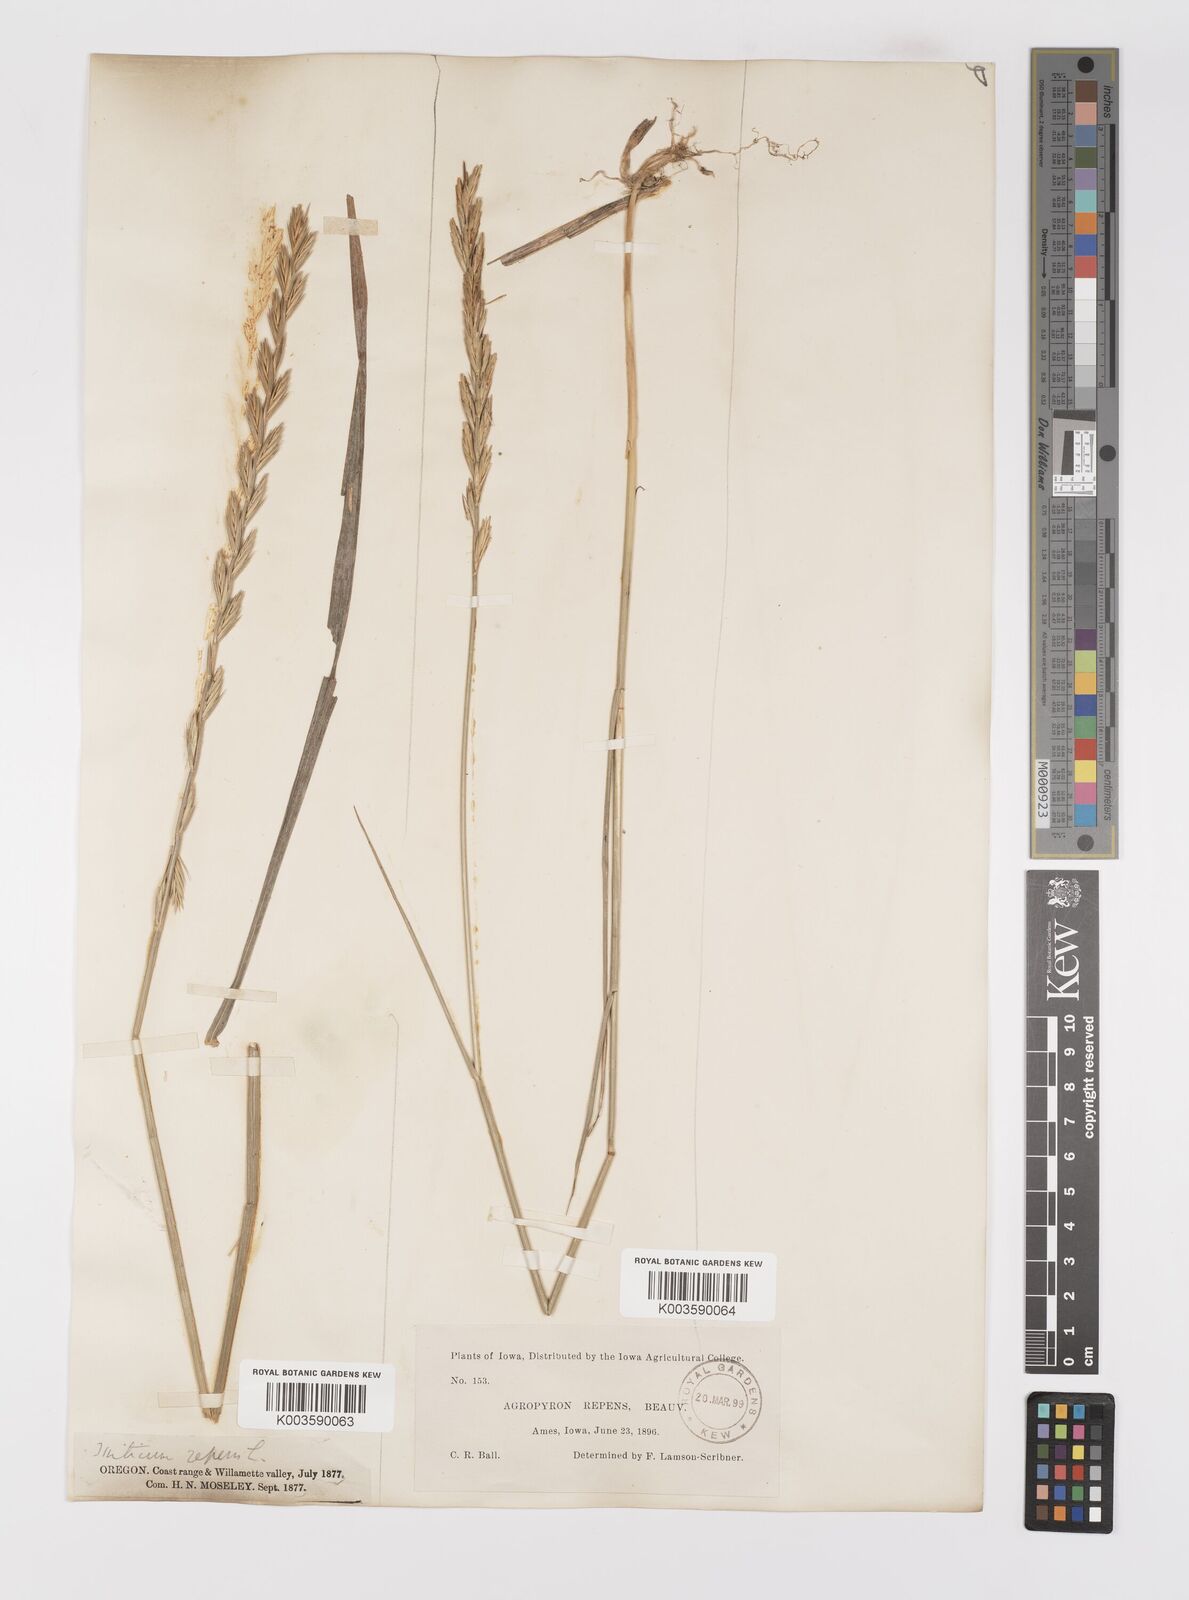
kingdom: Plantae
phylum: Tracheophyta
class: Liliopsida
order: Poales
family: Poaceae
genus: Elymus
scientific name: Elymus repens
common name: Quackgrass
